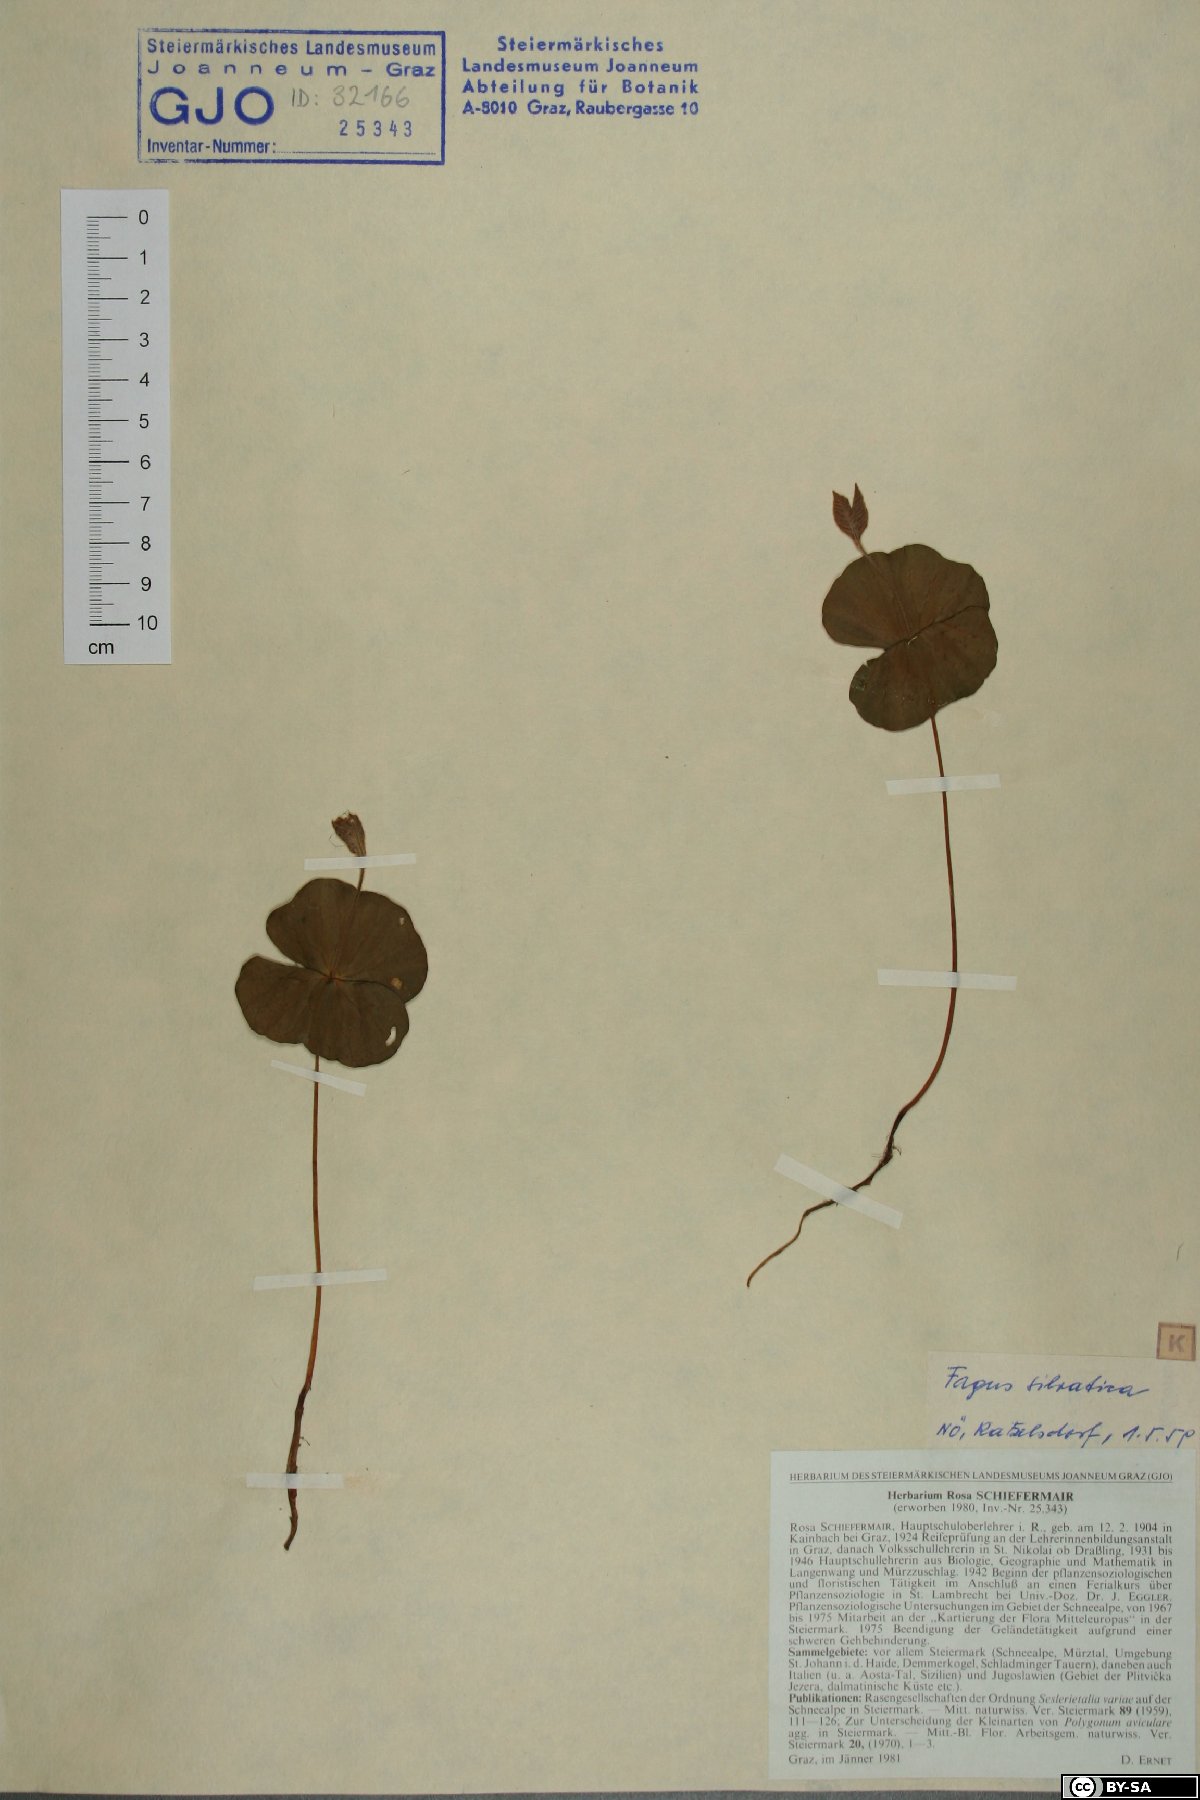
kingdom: Plantae
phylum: Tracheophyta
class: Magnoliopsida
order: Fagales
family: Fagaceae
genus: Fagus
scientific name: Fagus sylvatica
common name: Beech
